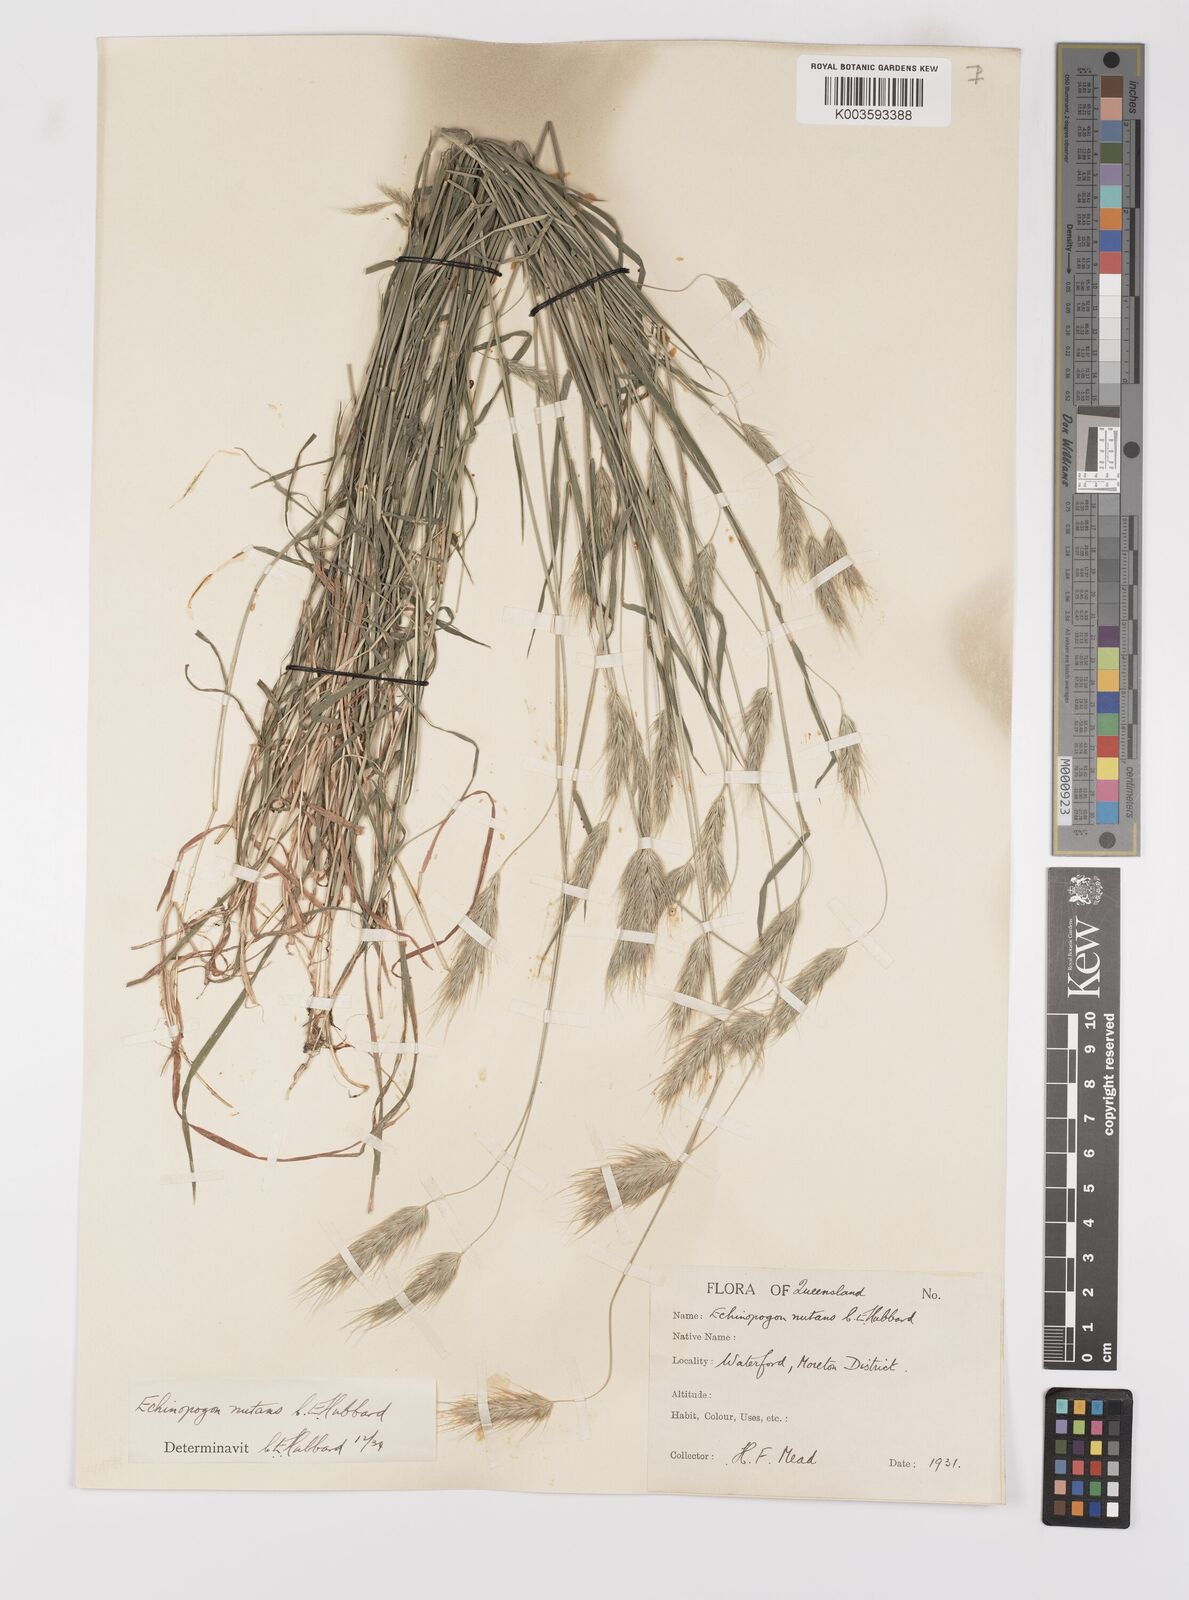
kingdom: Plantae
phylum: Tracheophyta
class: Liliopsida
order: Poales
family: Poaceae
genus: Echinopogon
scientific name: Echinopogon nutans
